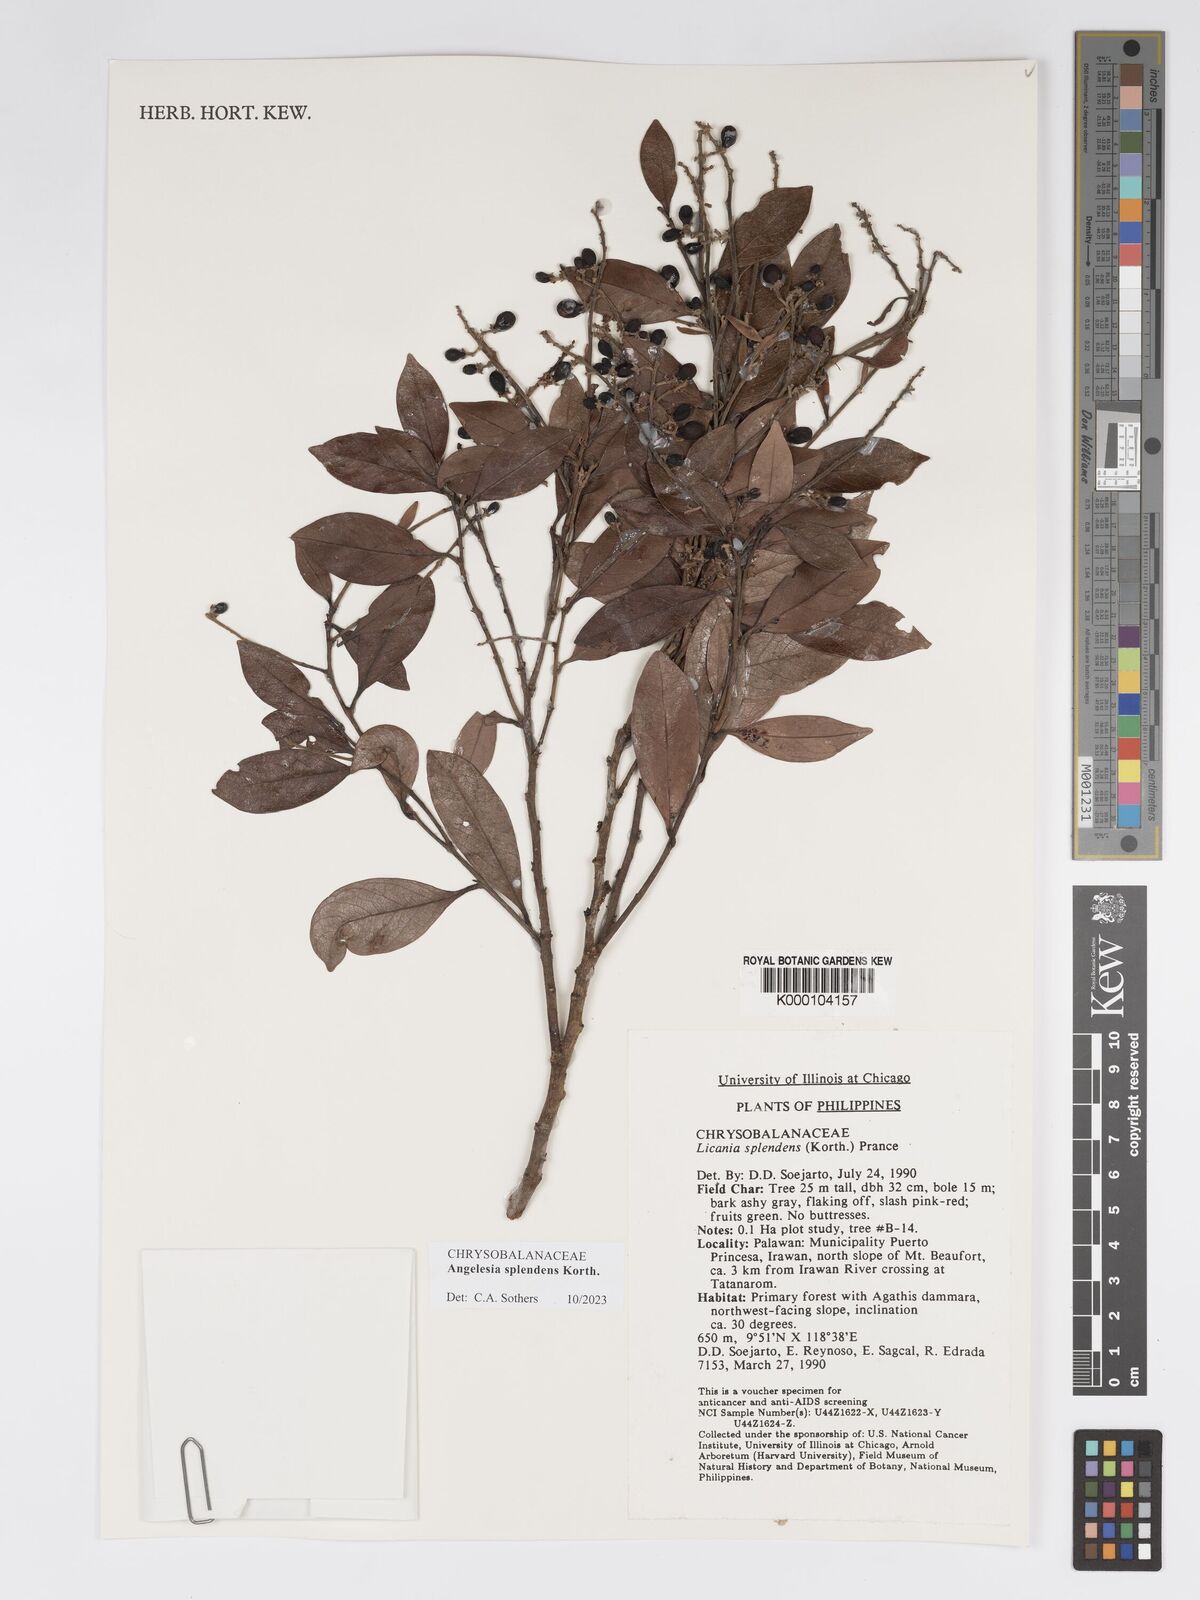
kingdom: Plantae
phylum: Tracheophyta
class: Magnoliopsida
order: Malpighiales
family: Chrysobalanaceae
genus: Angelesia
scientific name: Angelesia splendens
